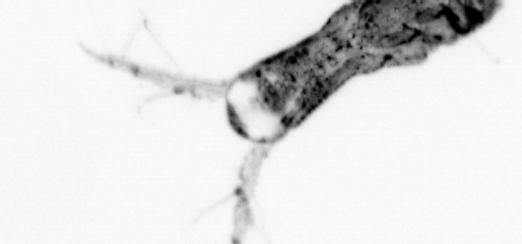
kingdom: Animalia
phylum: Arthropoda
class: Copepoda
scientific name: Copepoda
